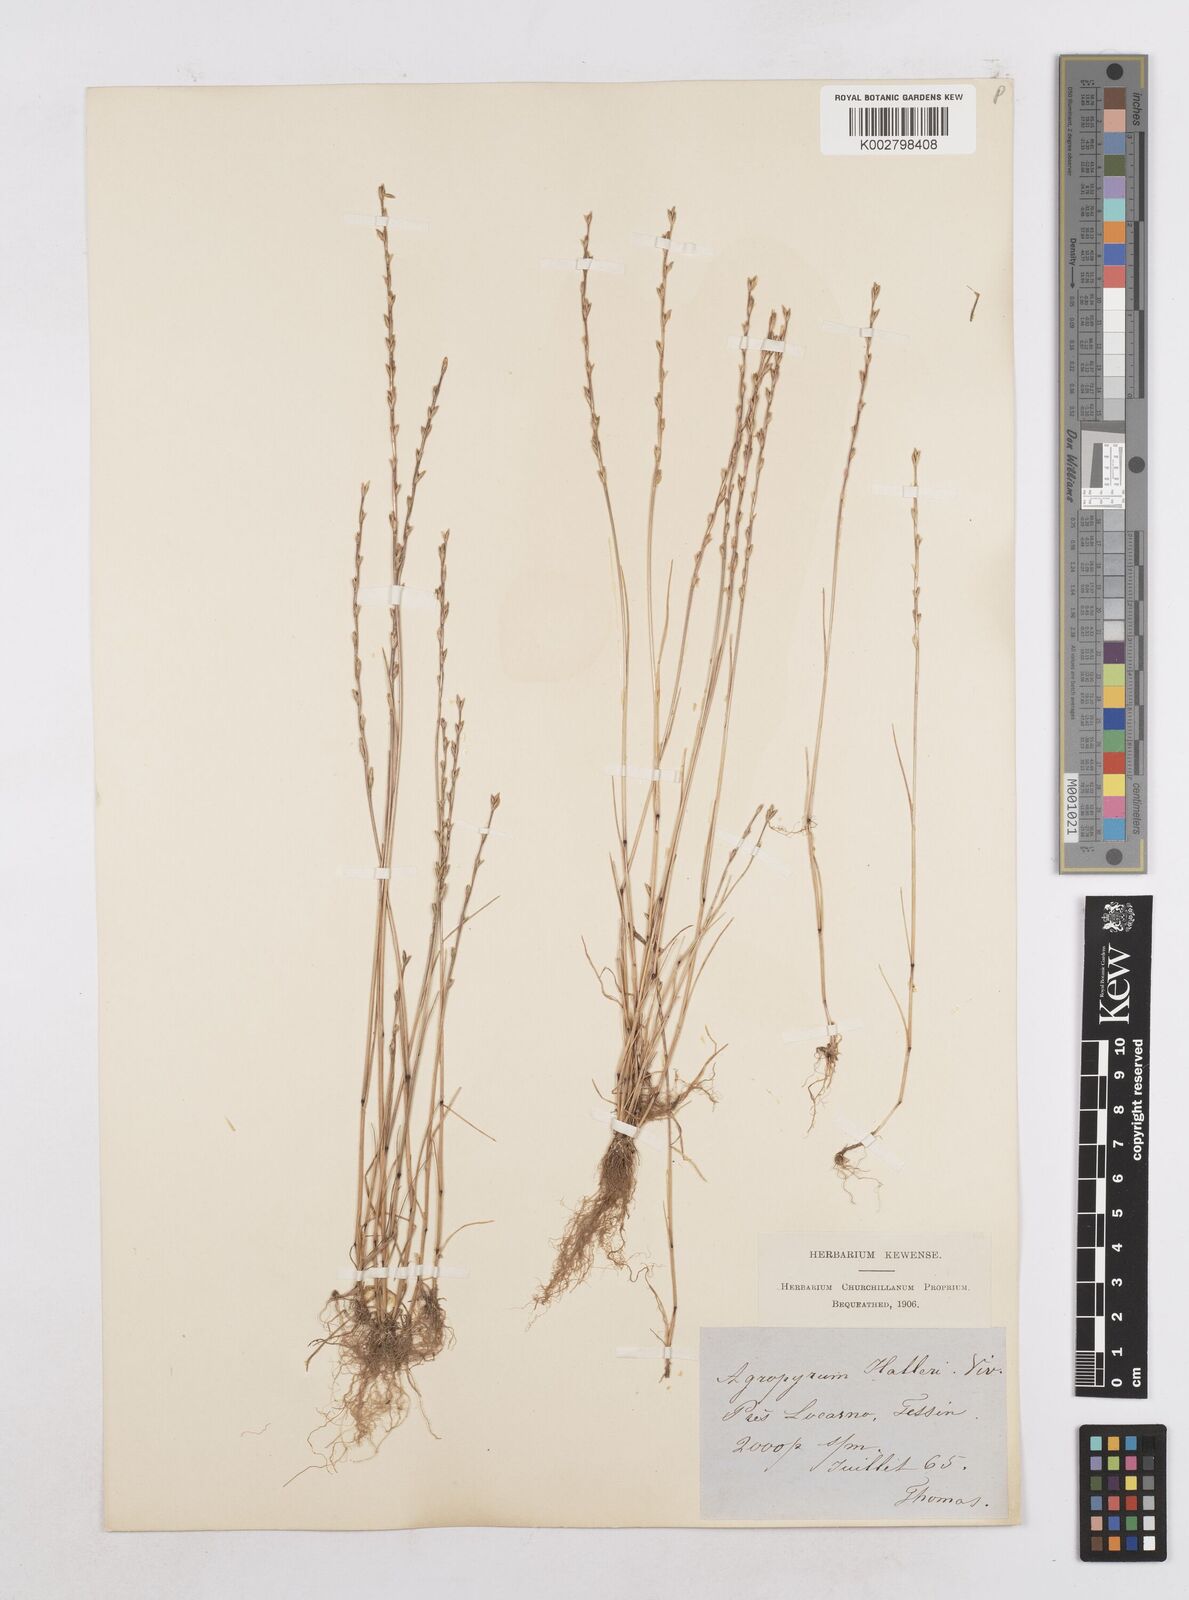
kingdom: Plantae
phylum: Tracheophyta
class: Liliopsida
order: Poales
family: Poaceae
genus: Festuca
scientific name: Festuca lachenalii
